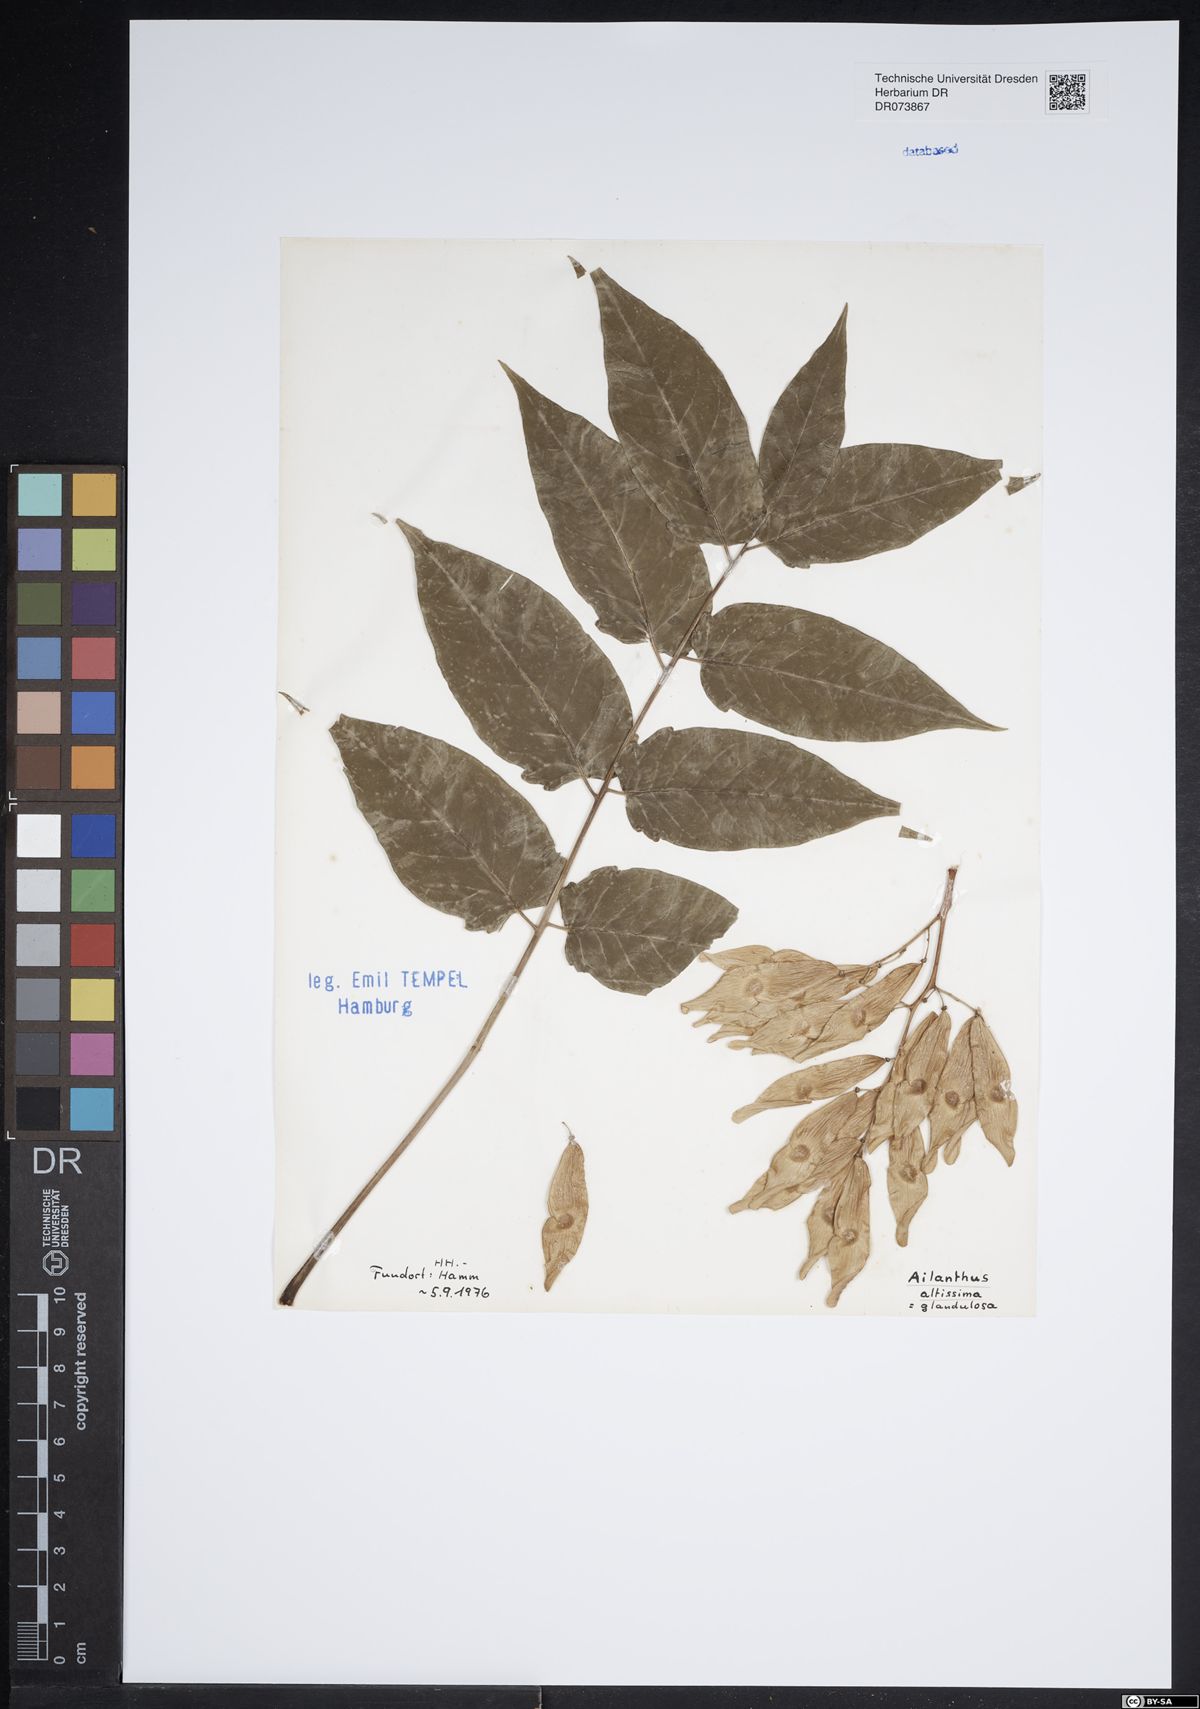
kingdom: Plantae
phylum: Tracheophyta
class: Magnoliopsida
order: Sapindales
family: Simaroubaceae
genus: Ailanthus
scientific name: Ailanthus altissima
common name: Tree-of-heaven
